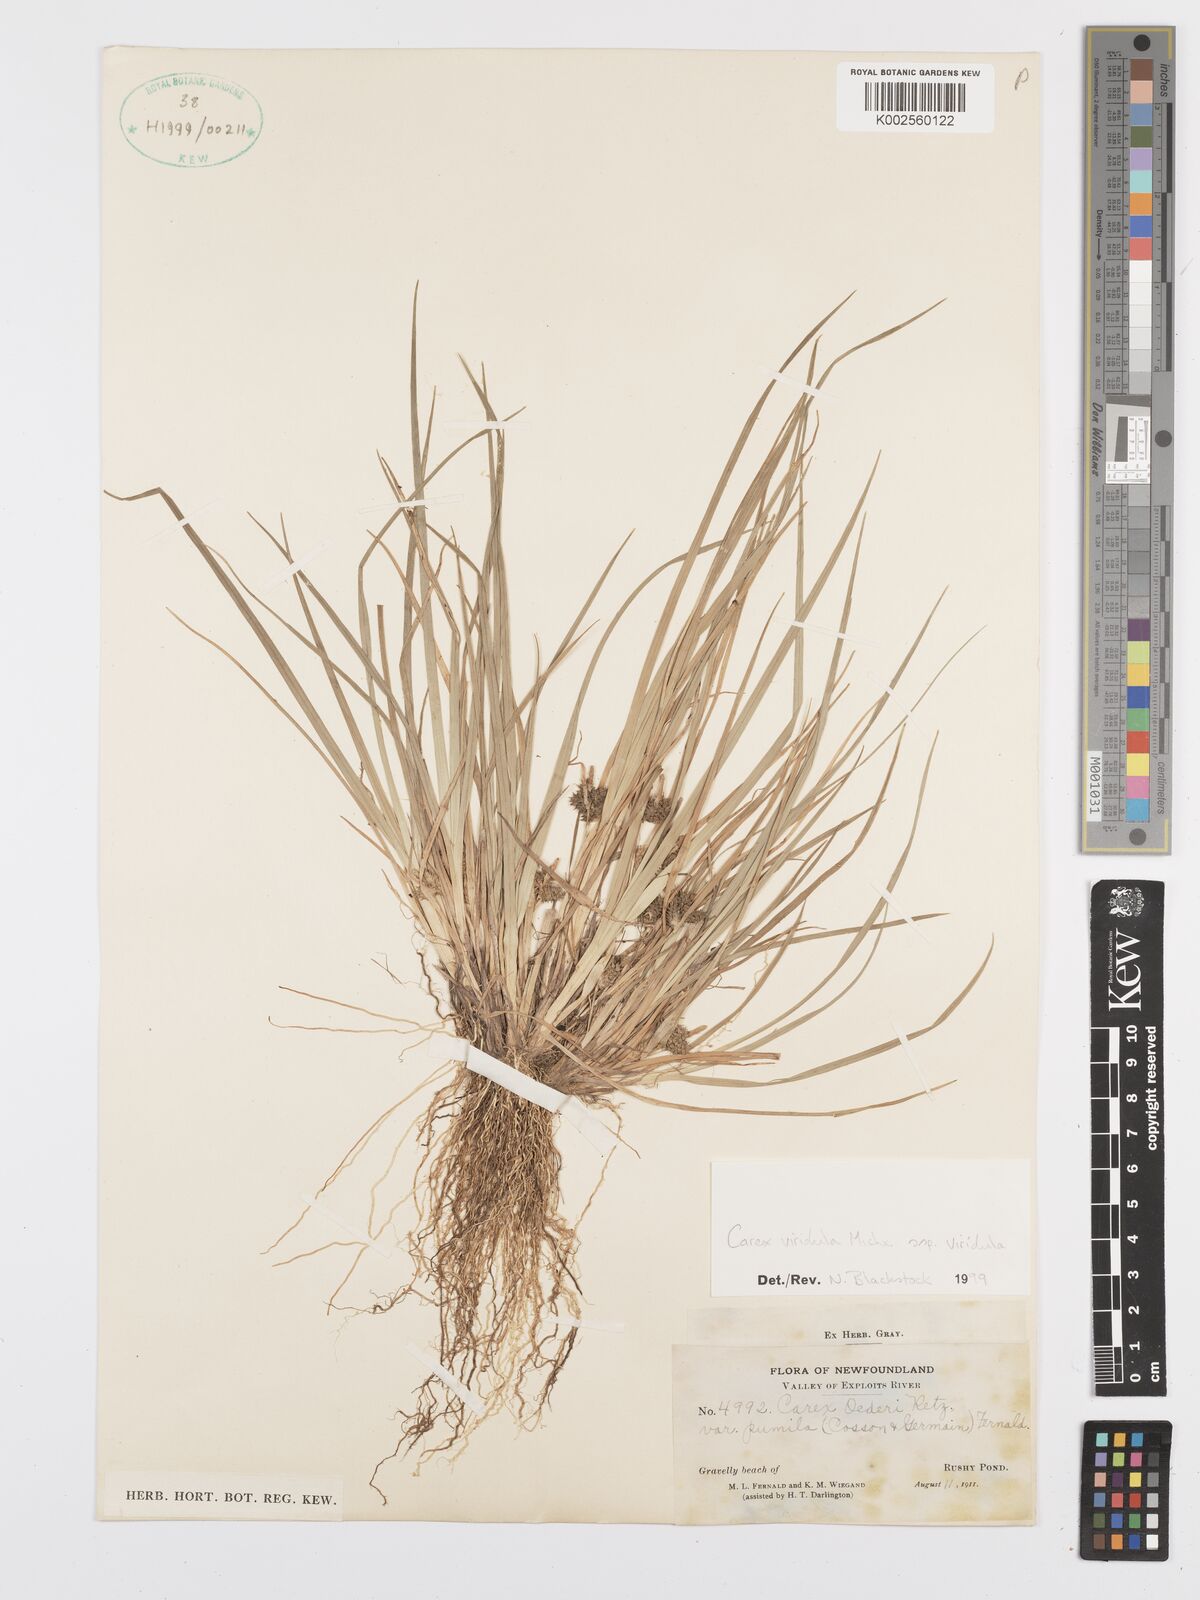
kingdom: Plantae
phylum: Tracheophyta
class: Liliopsida
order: Poales
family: Cyperaceae
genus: Carex
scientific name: Carex oederi
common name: Common & small-fruited yellow-sedge
